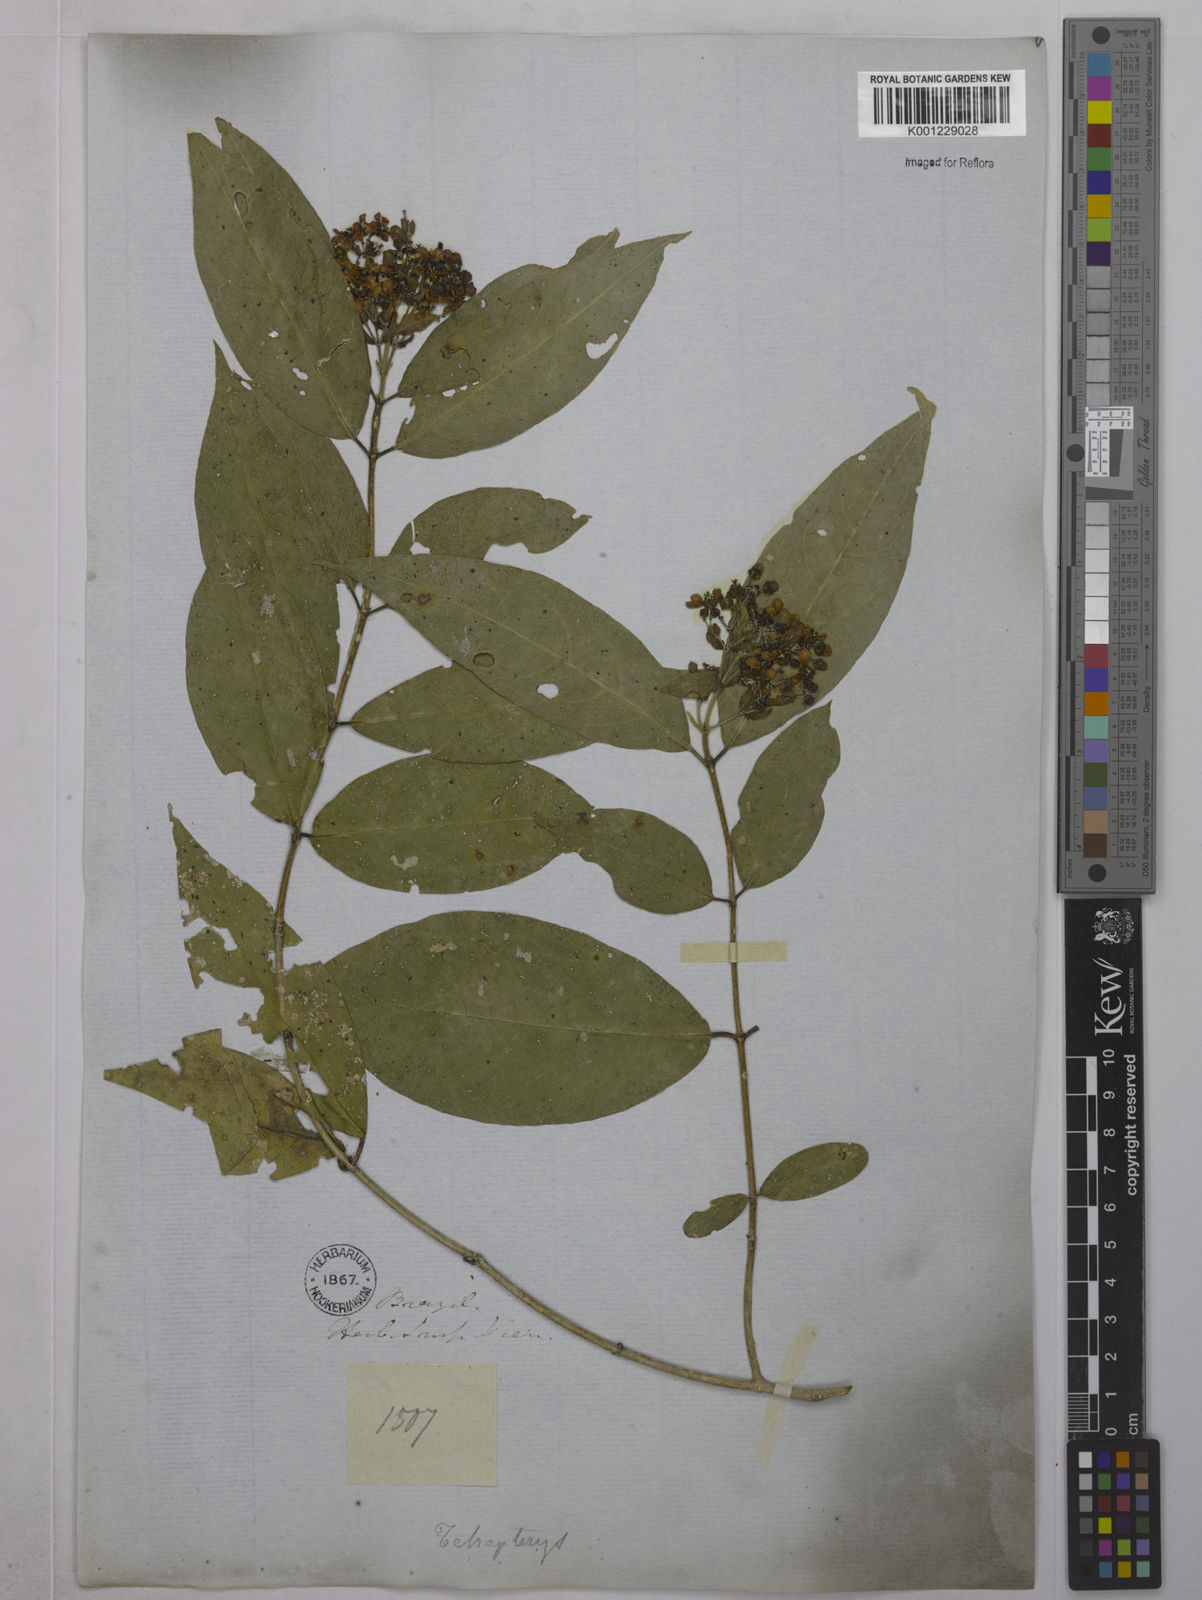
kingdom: Plantae
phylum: Tracheophyta
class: Magnoliopsida
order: Malpighiales
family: Malpighiaceae
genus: Niedenzuella
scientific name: Niedenzuella acutifolia
